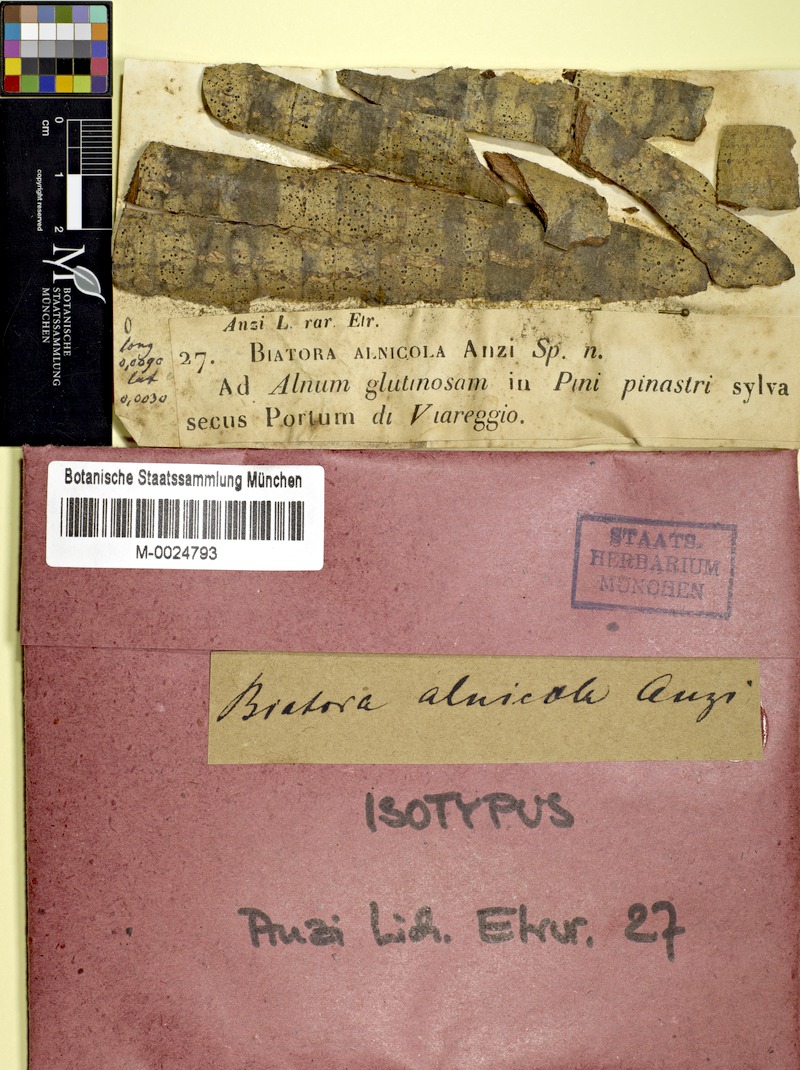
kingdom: Fungi
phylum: Ascomycota
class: Lecanoromycetes
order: Lecanorales
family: Ramalinaceae
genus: Biatora
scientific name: Biatora alnicola
